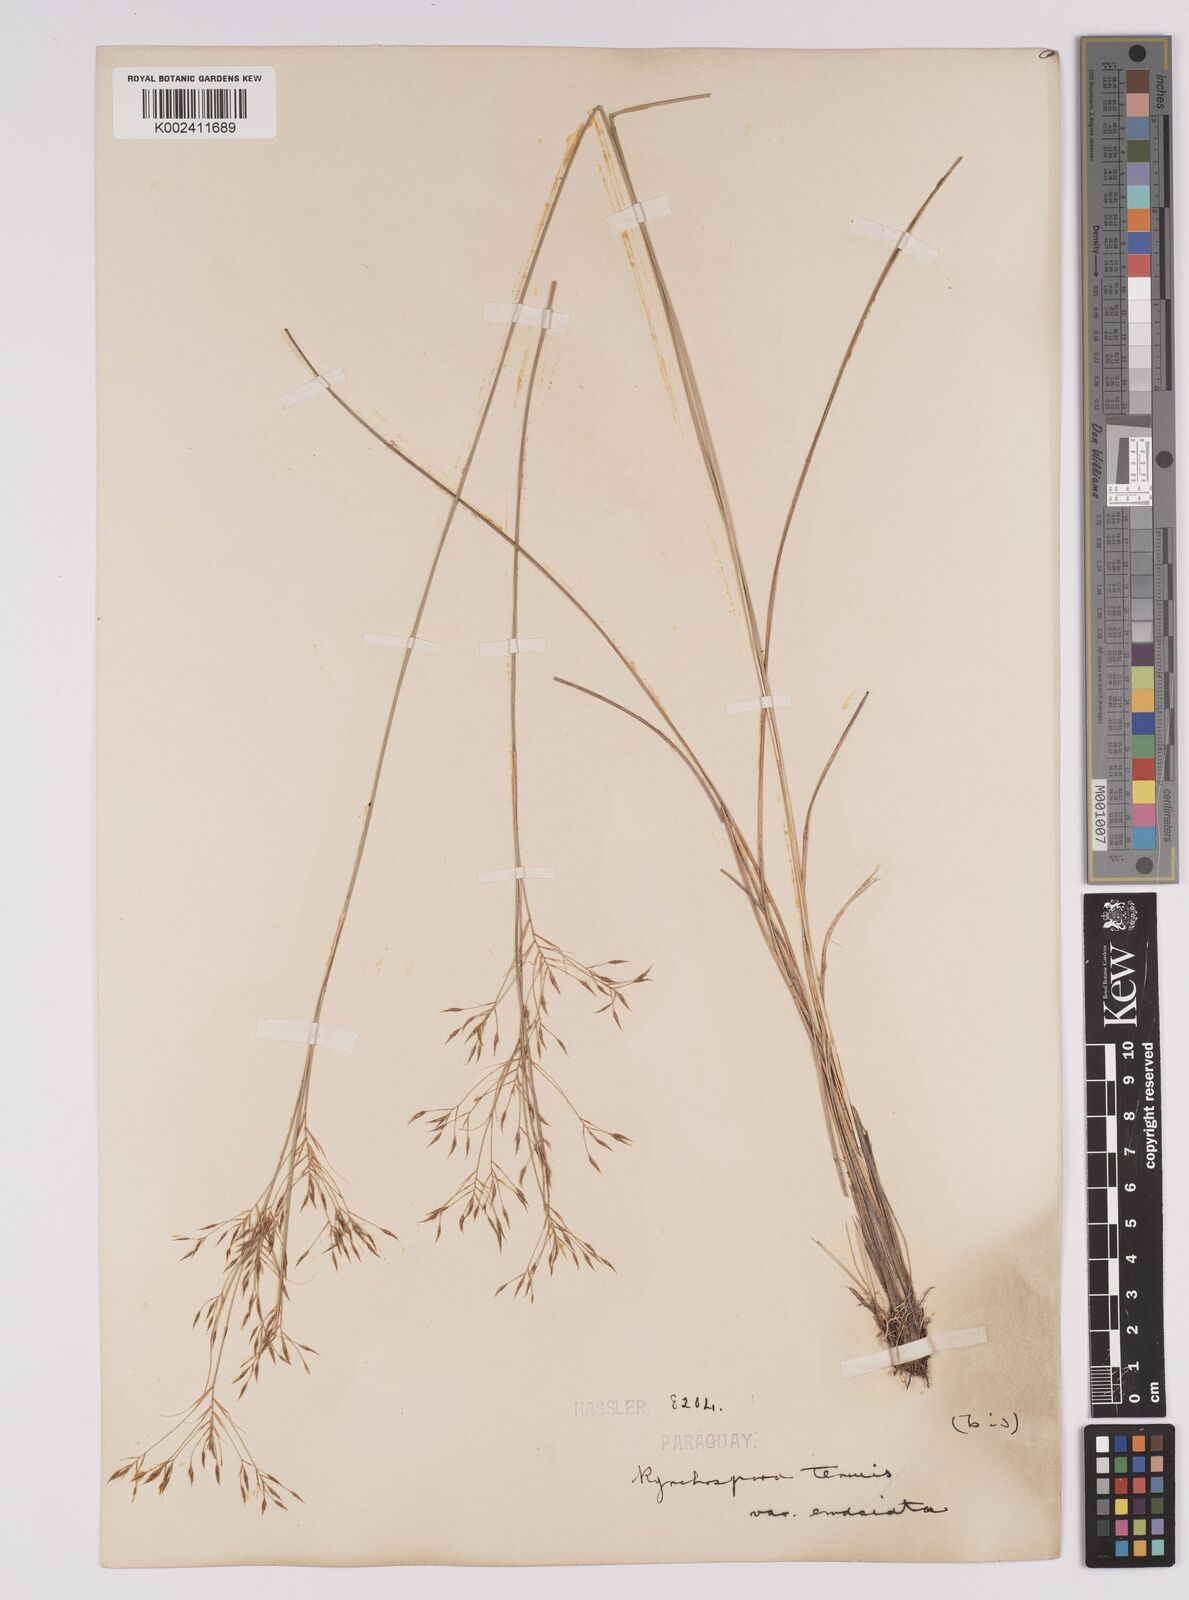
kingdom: Plantae
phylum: Tracheophyta
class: Liliopsida
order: Poales
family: Cyperaceae
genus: Rhynchospora
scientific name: Rhynchospora tenuis
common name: Quill beaksedge
